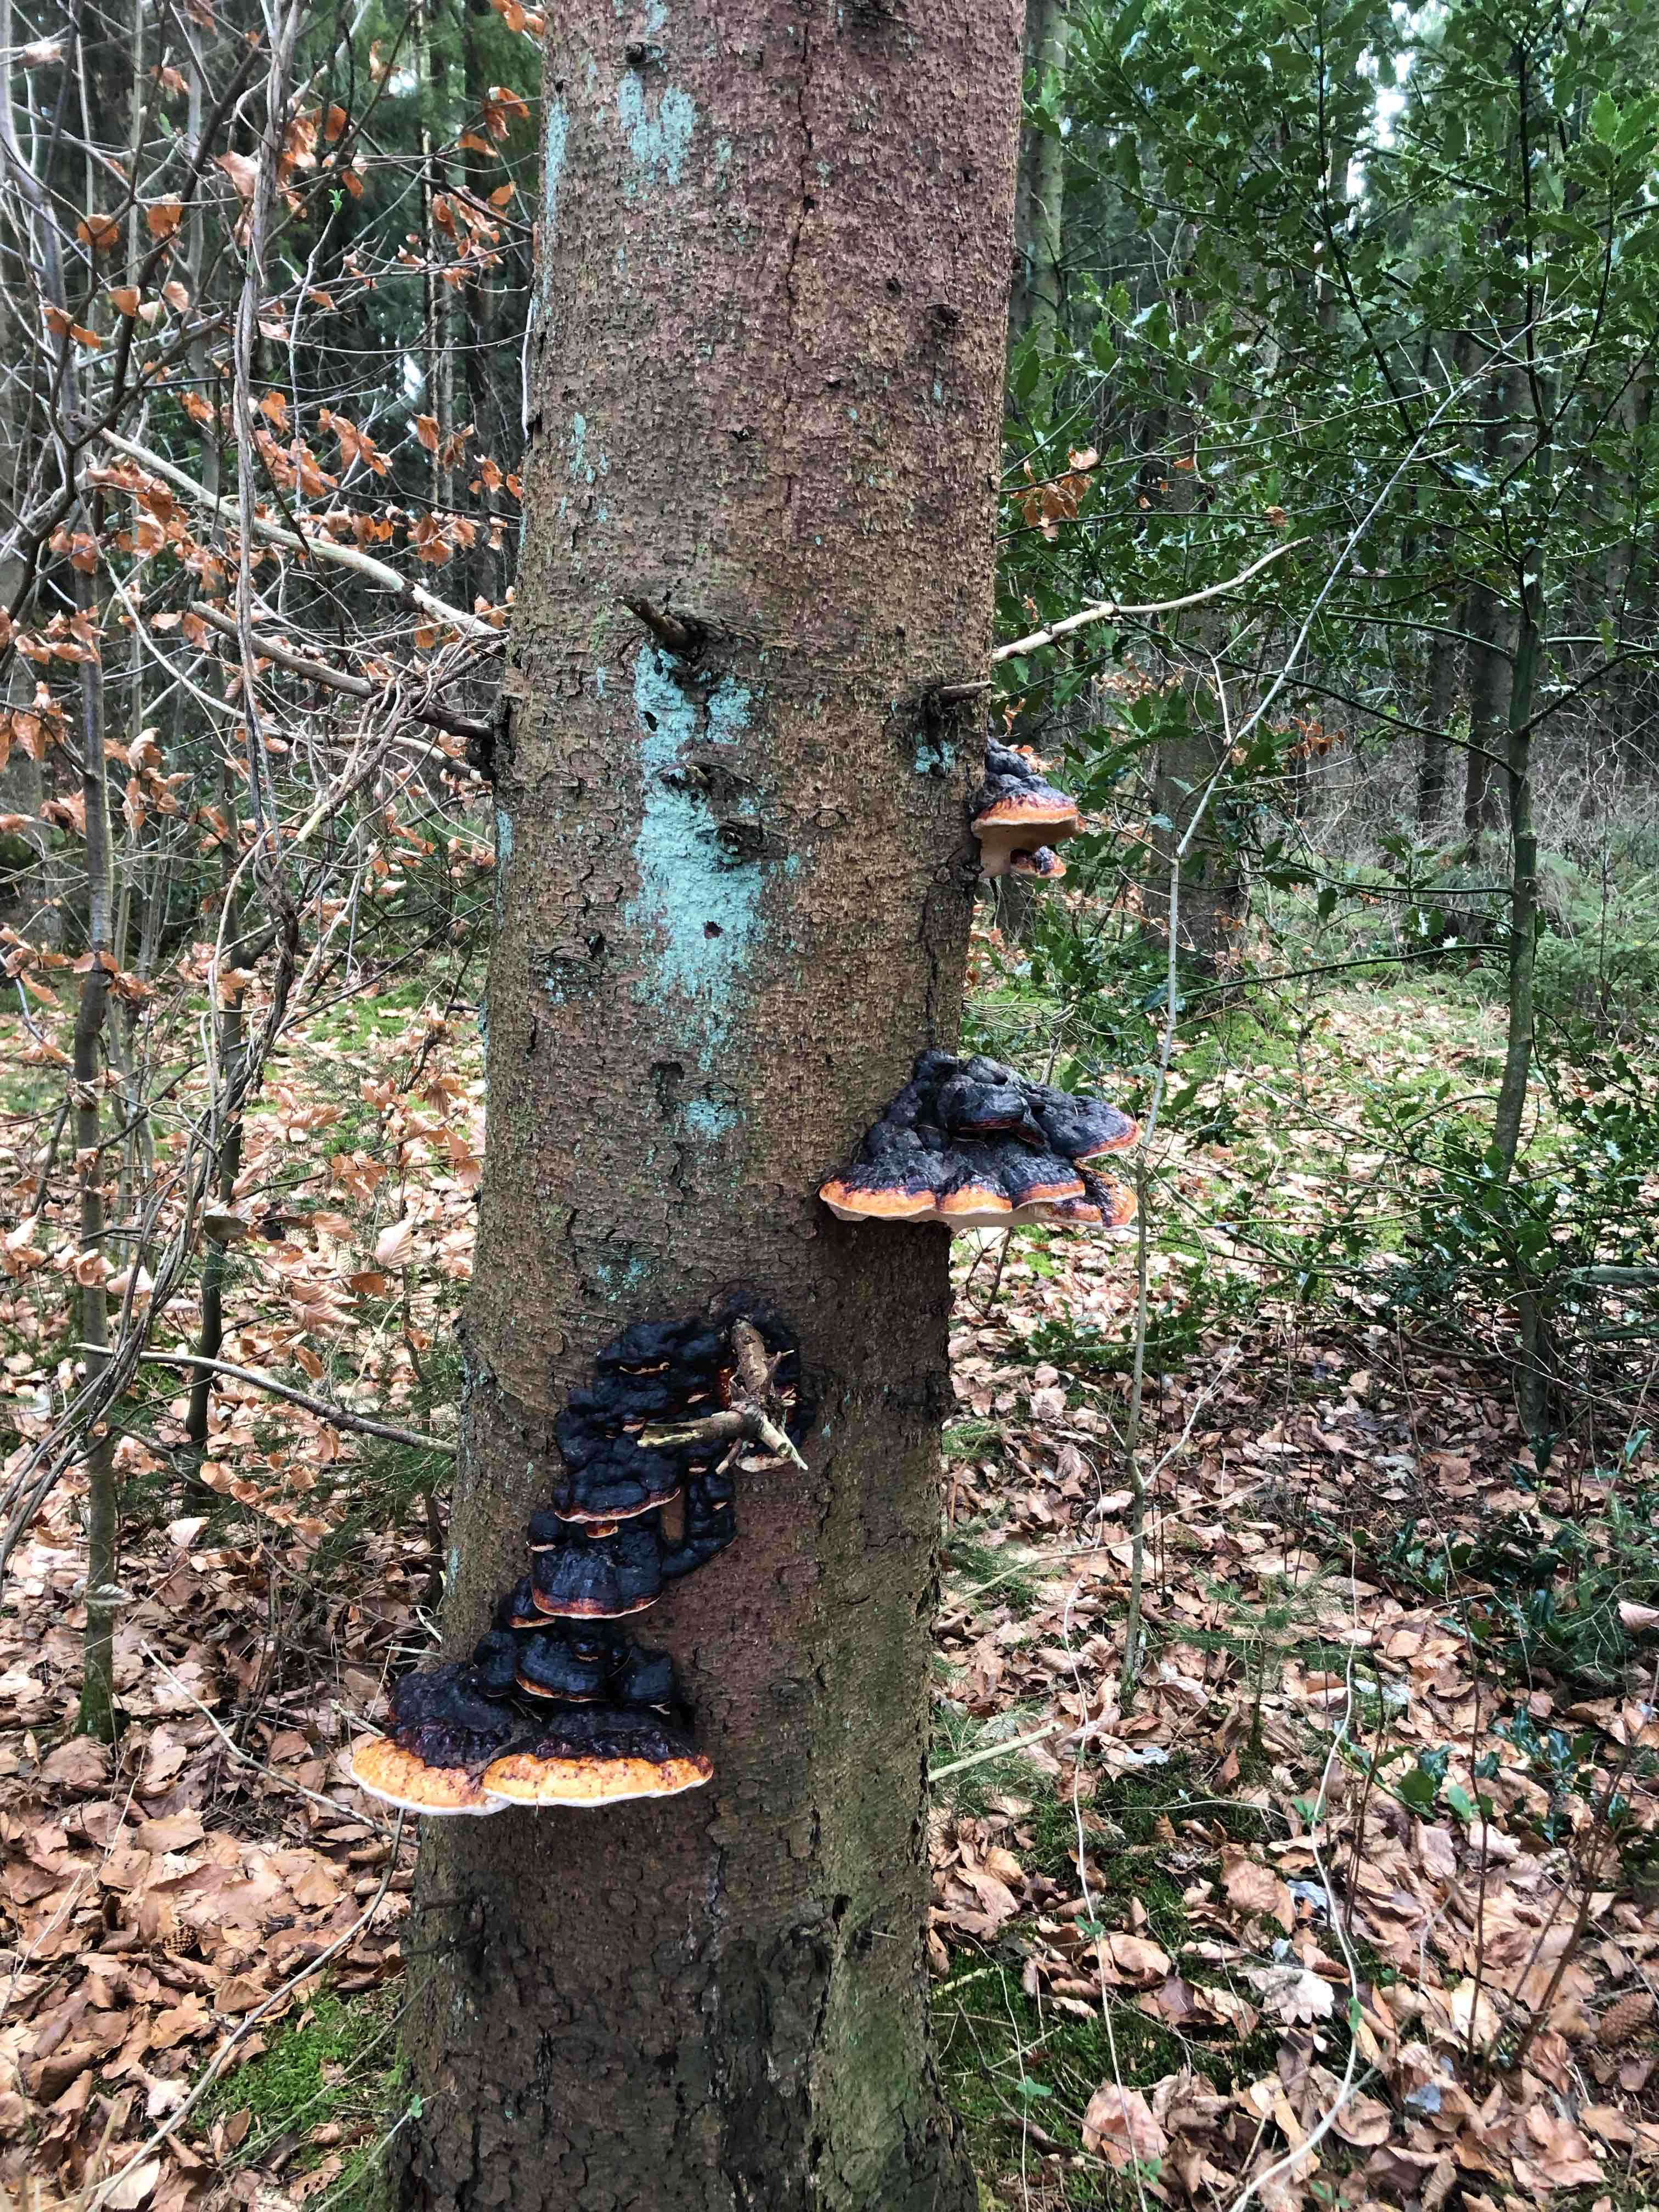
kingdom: Fungi
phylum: Basidiomycota
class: Agaricomycetes
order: Polyporales
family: Fomitopsidaceae
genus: Fomitopsis
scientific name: Fomitopsis pinicola
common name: randbæltet hovporesvamp
